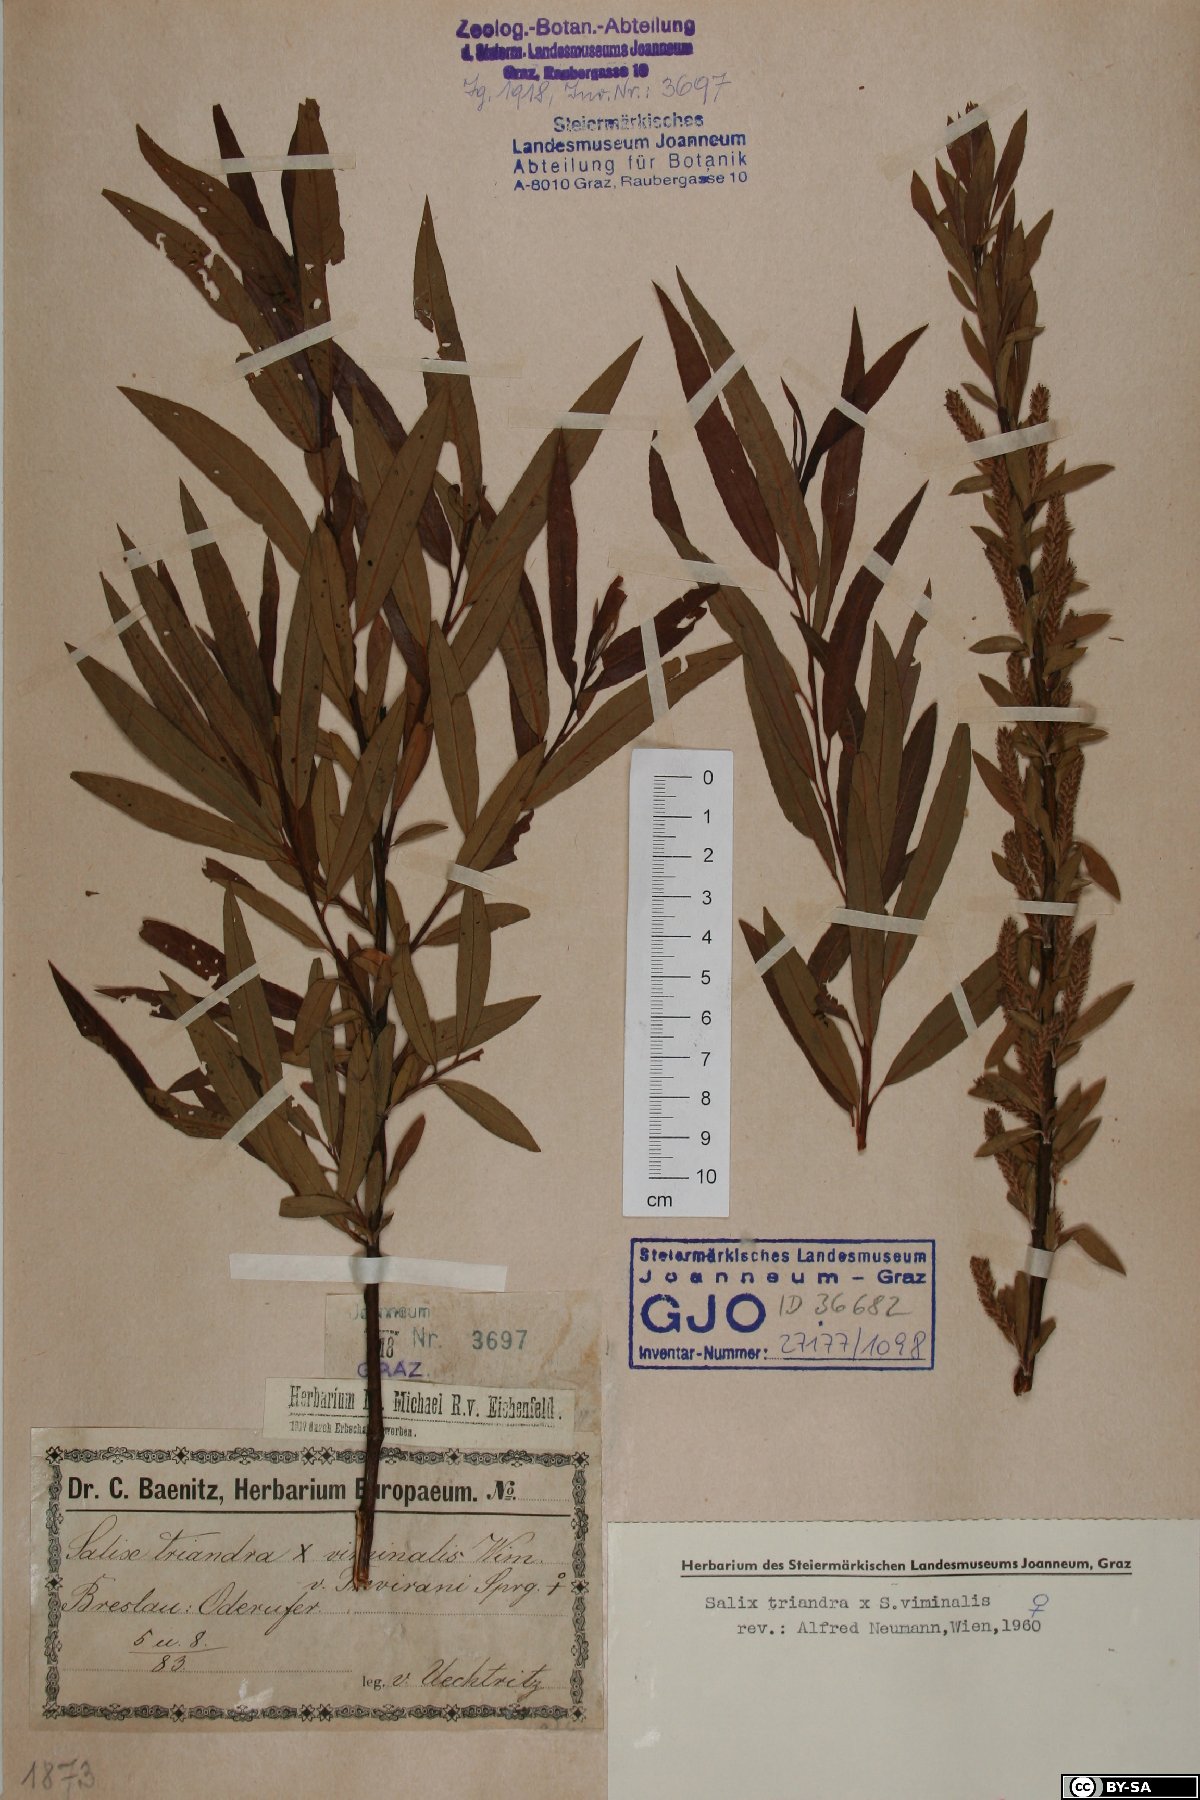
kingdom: Plantae
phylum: Tracheophyta
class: Magnoliopsida
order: Malpighiales
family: Salicaceae
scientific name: Salicaceae
